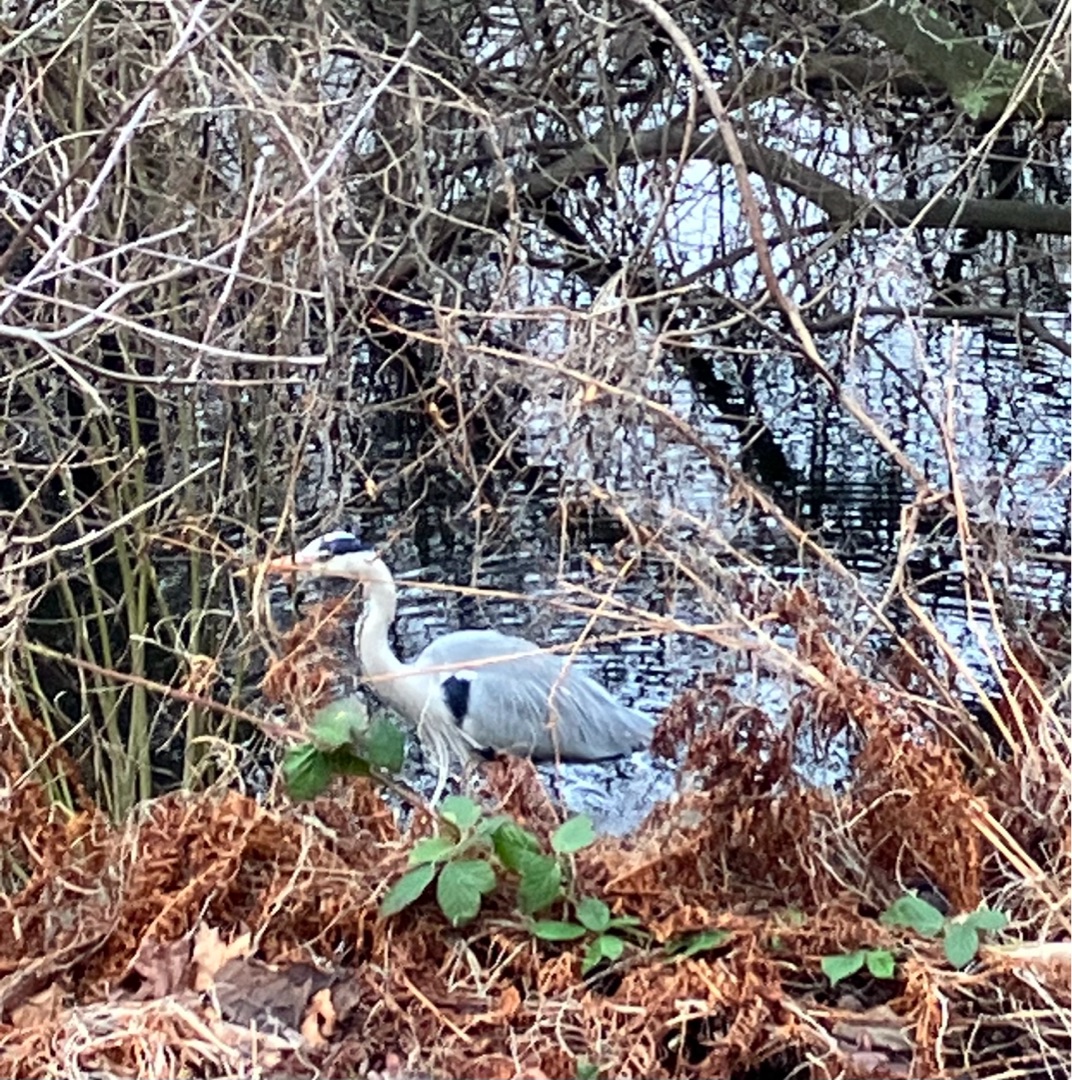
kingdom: Animalia
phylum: Chordata
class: Aves
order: Pelecaniformes
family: Ardeidae
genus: Ardea
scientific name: Ardea cinerea
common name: Fiskehejre
